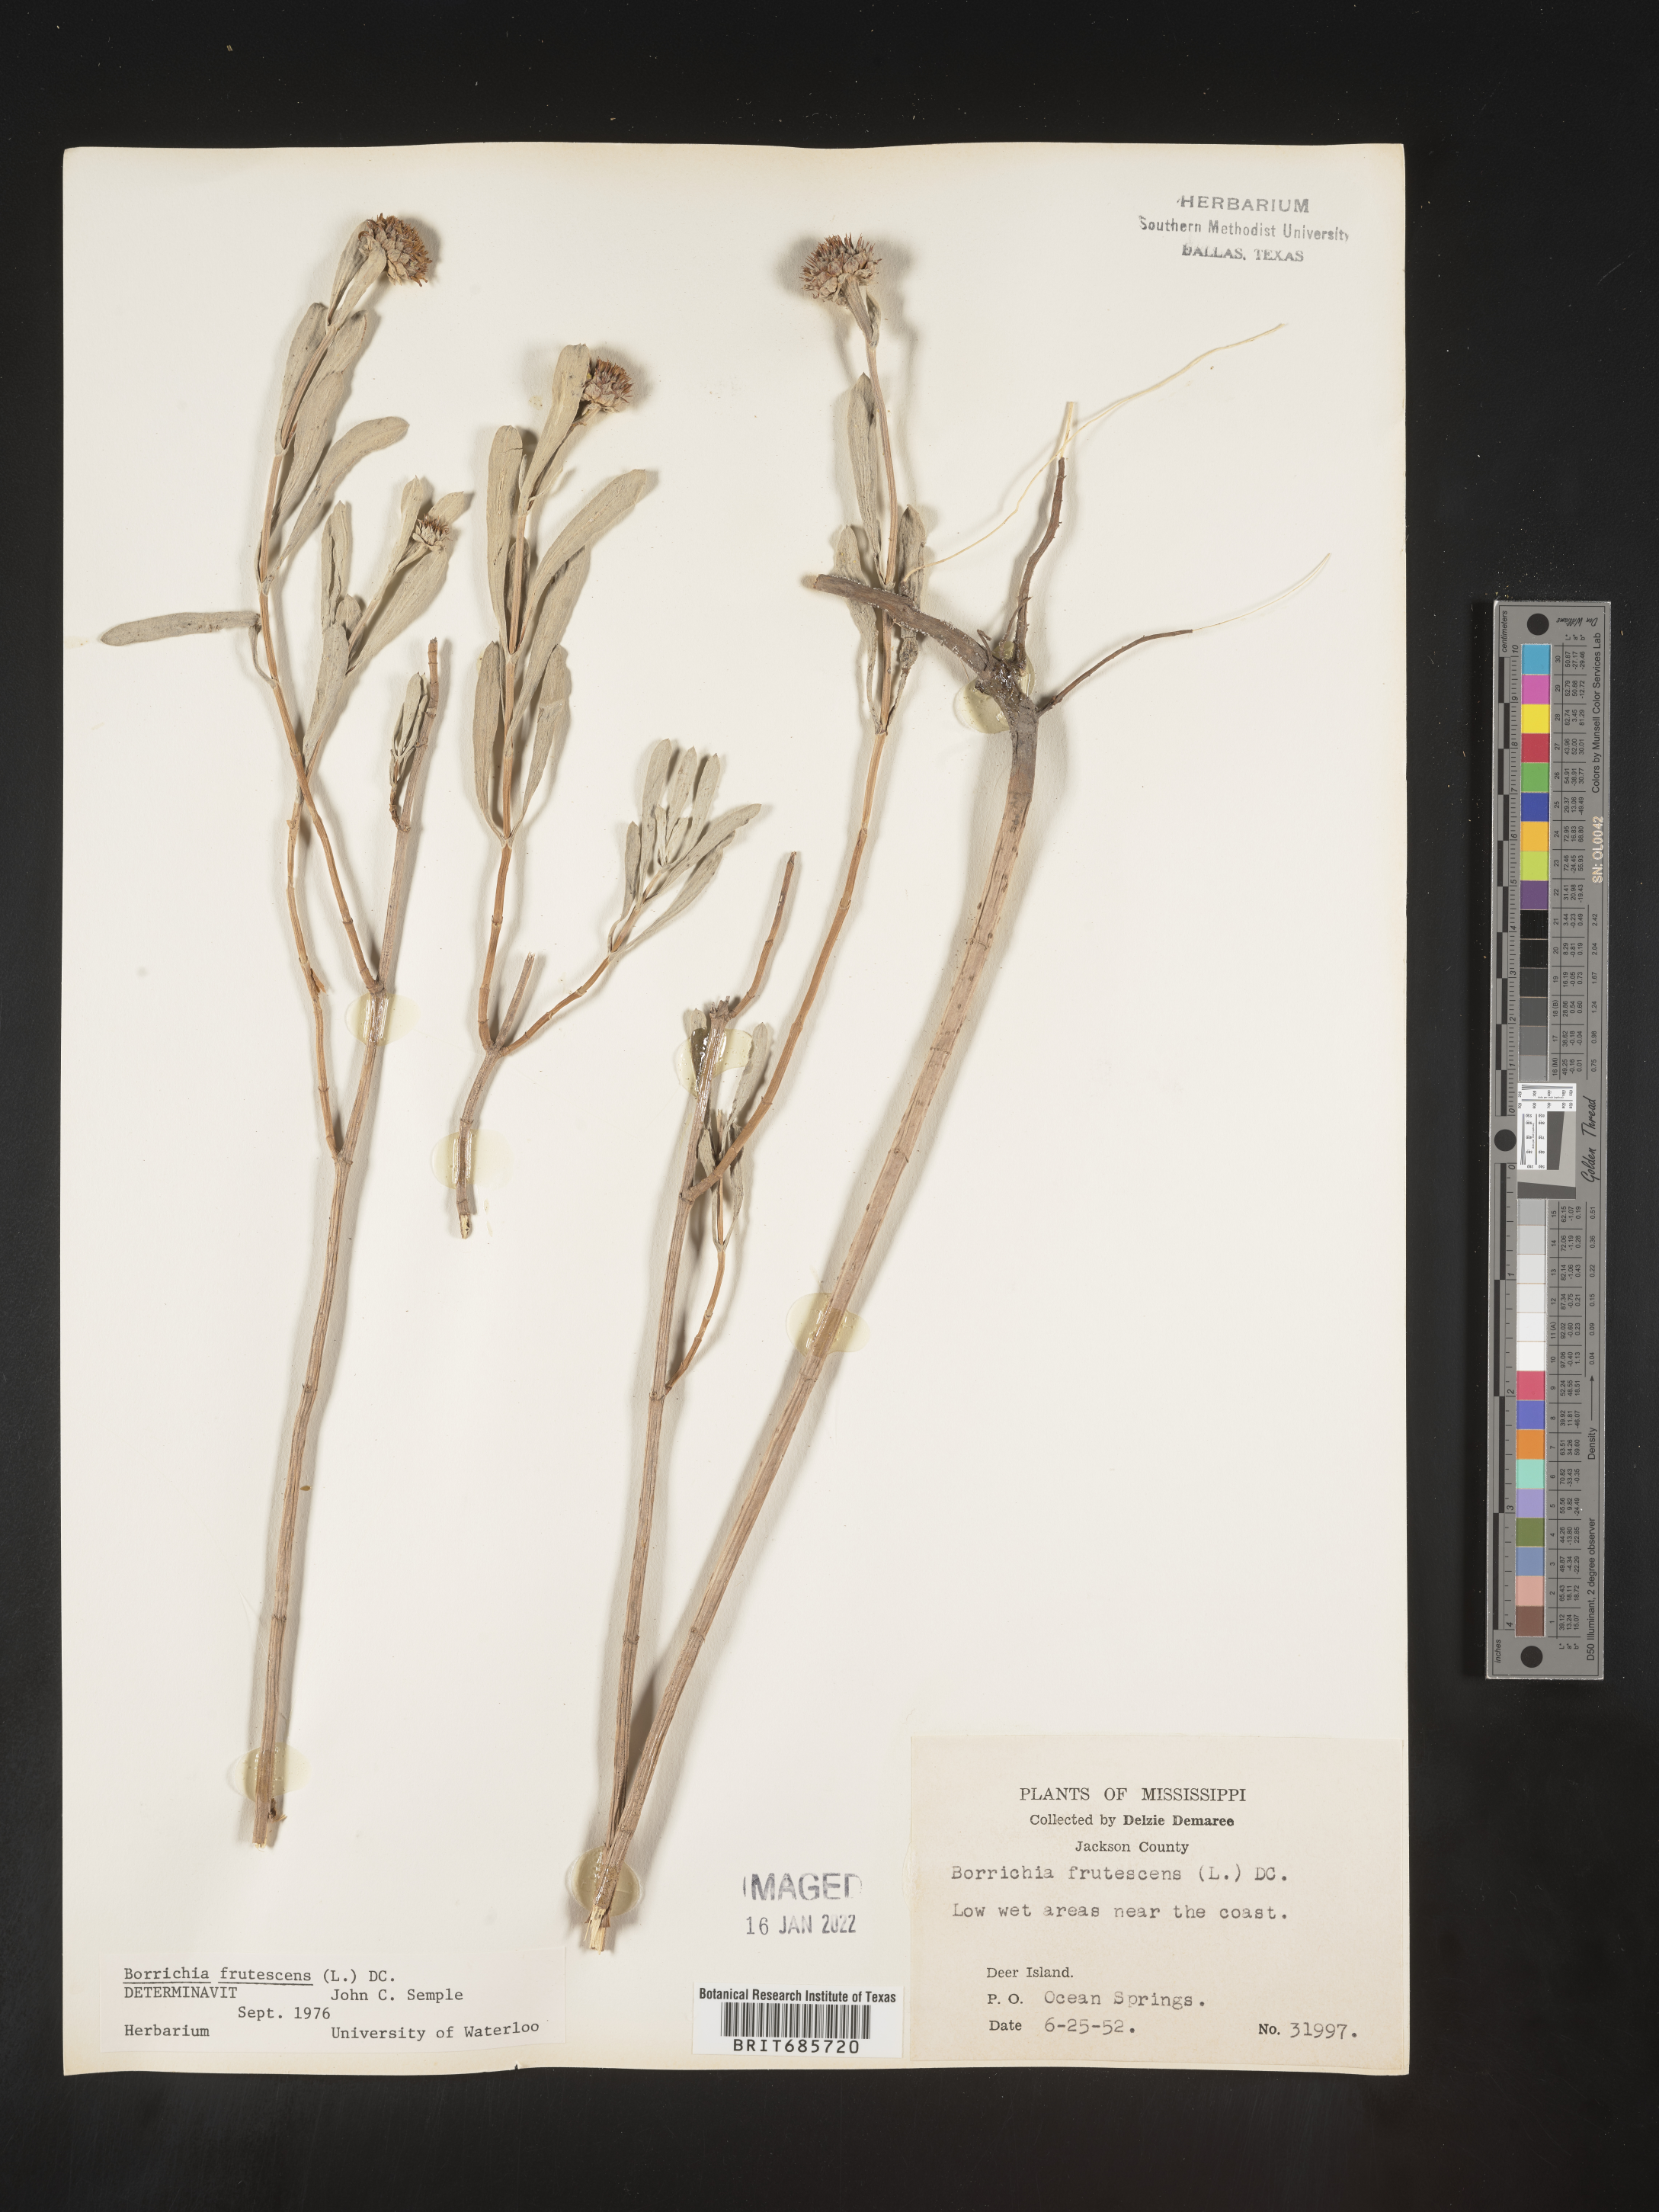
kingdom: Plantae
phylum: Tracheophyta
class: Magnoliopsida
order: Asterales
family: Asteraceae
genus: Borrichia
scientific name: Borrichia frutescens
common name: Sea oxeye
